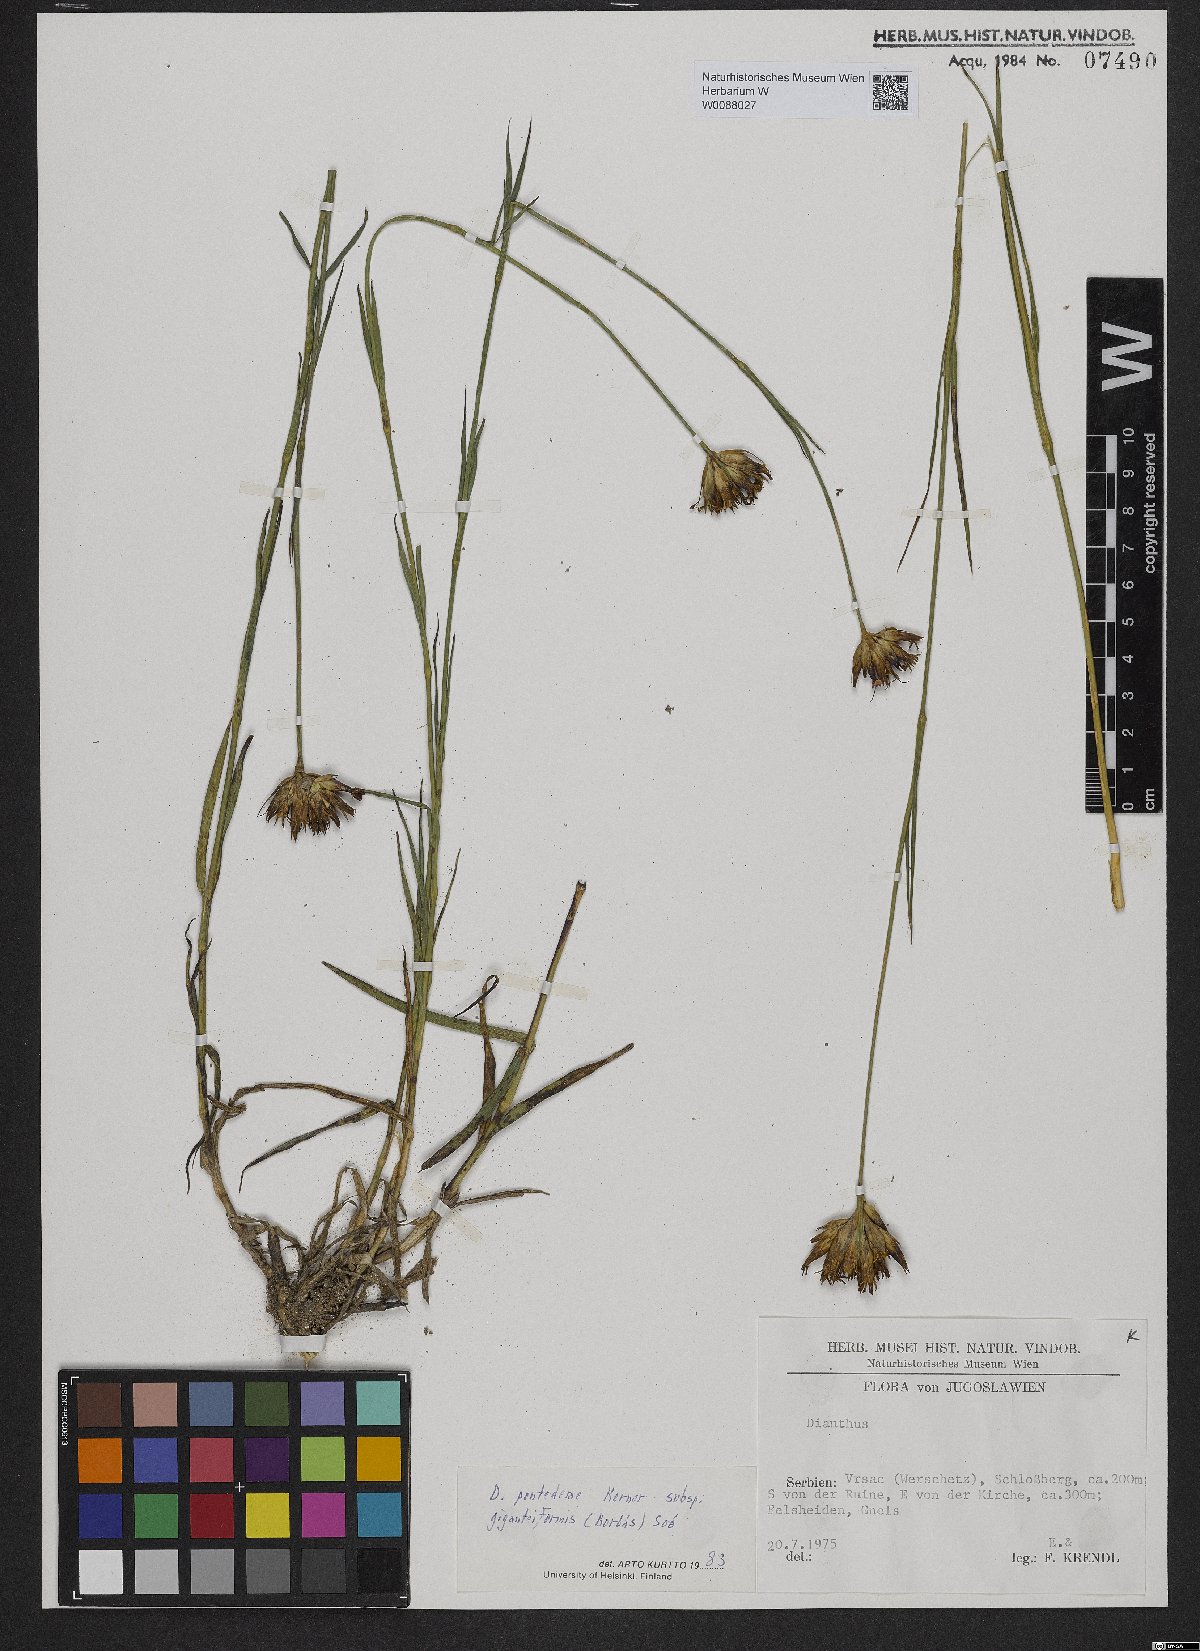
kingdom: Plantae
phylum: Tracheophyta
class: Magnoliopsida
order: Caryophyllales
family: Caryophyllaceae
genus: Dianthus
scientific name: Dianthus giganteiformis
